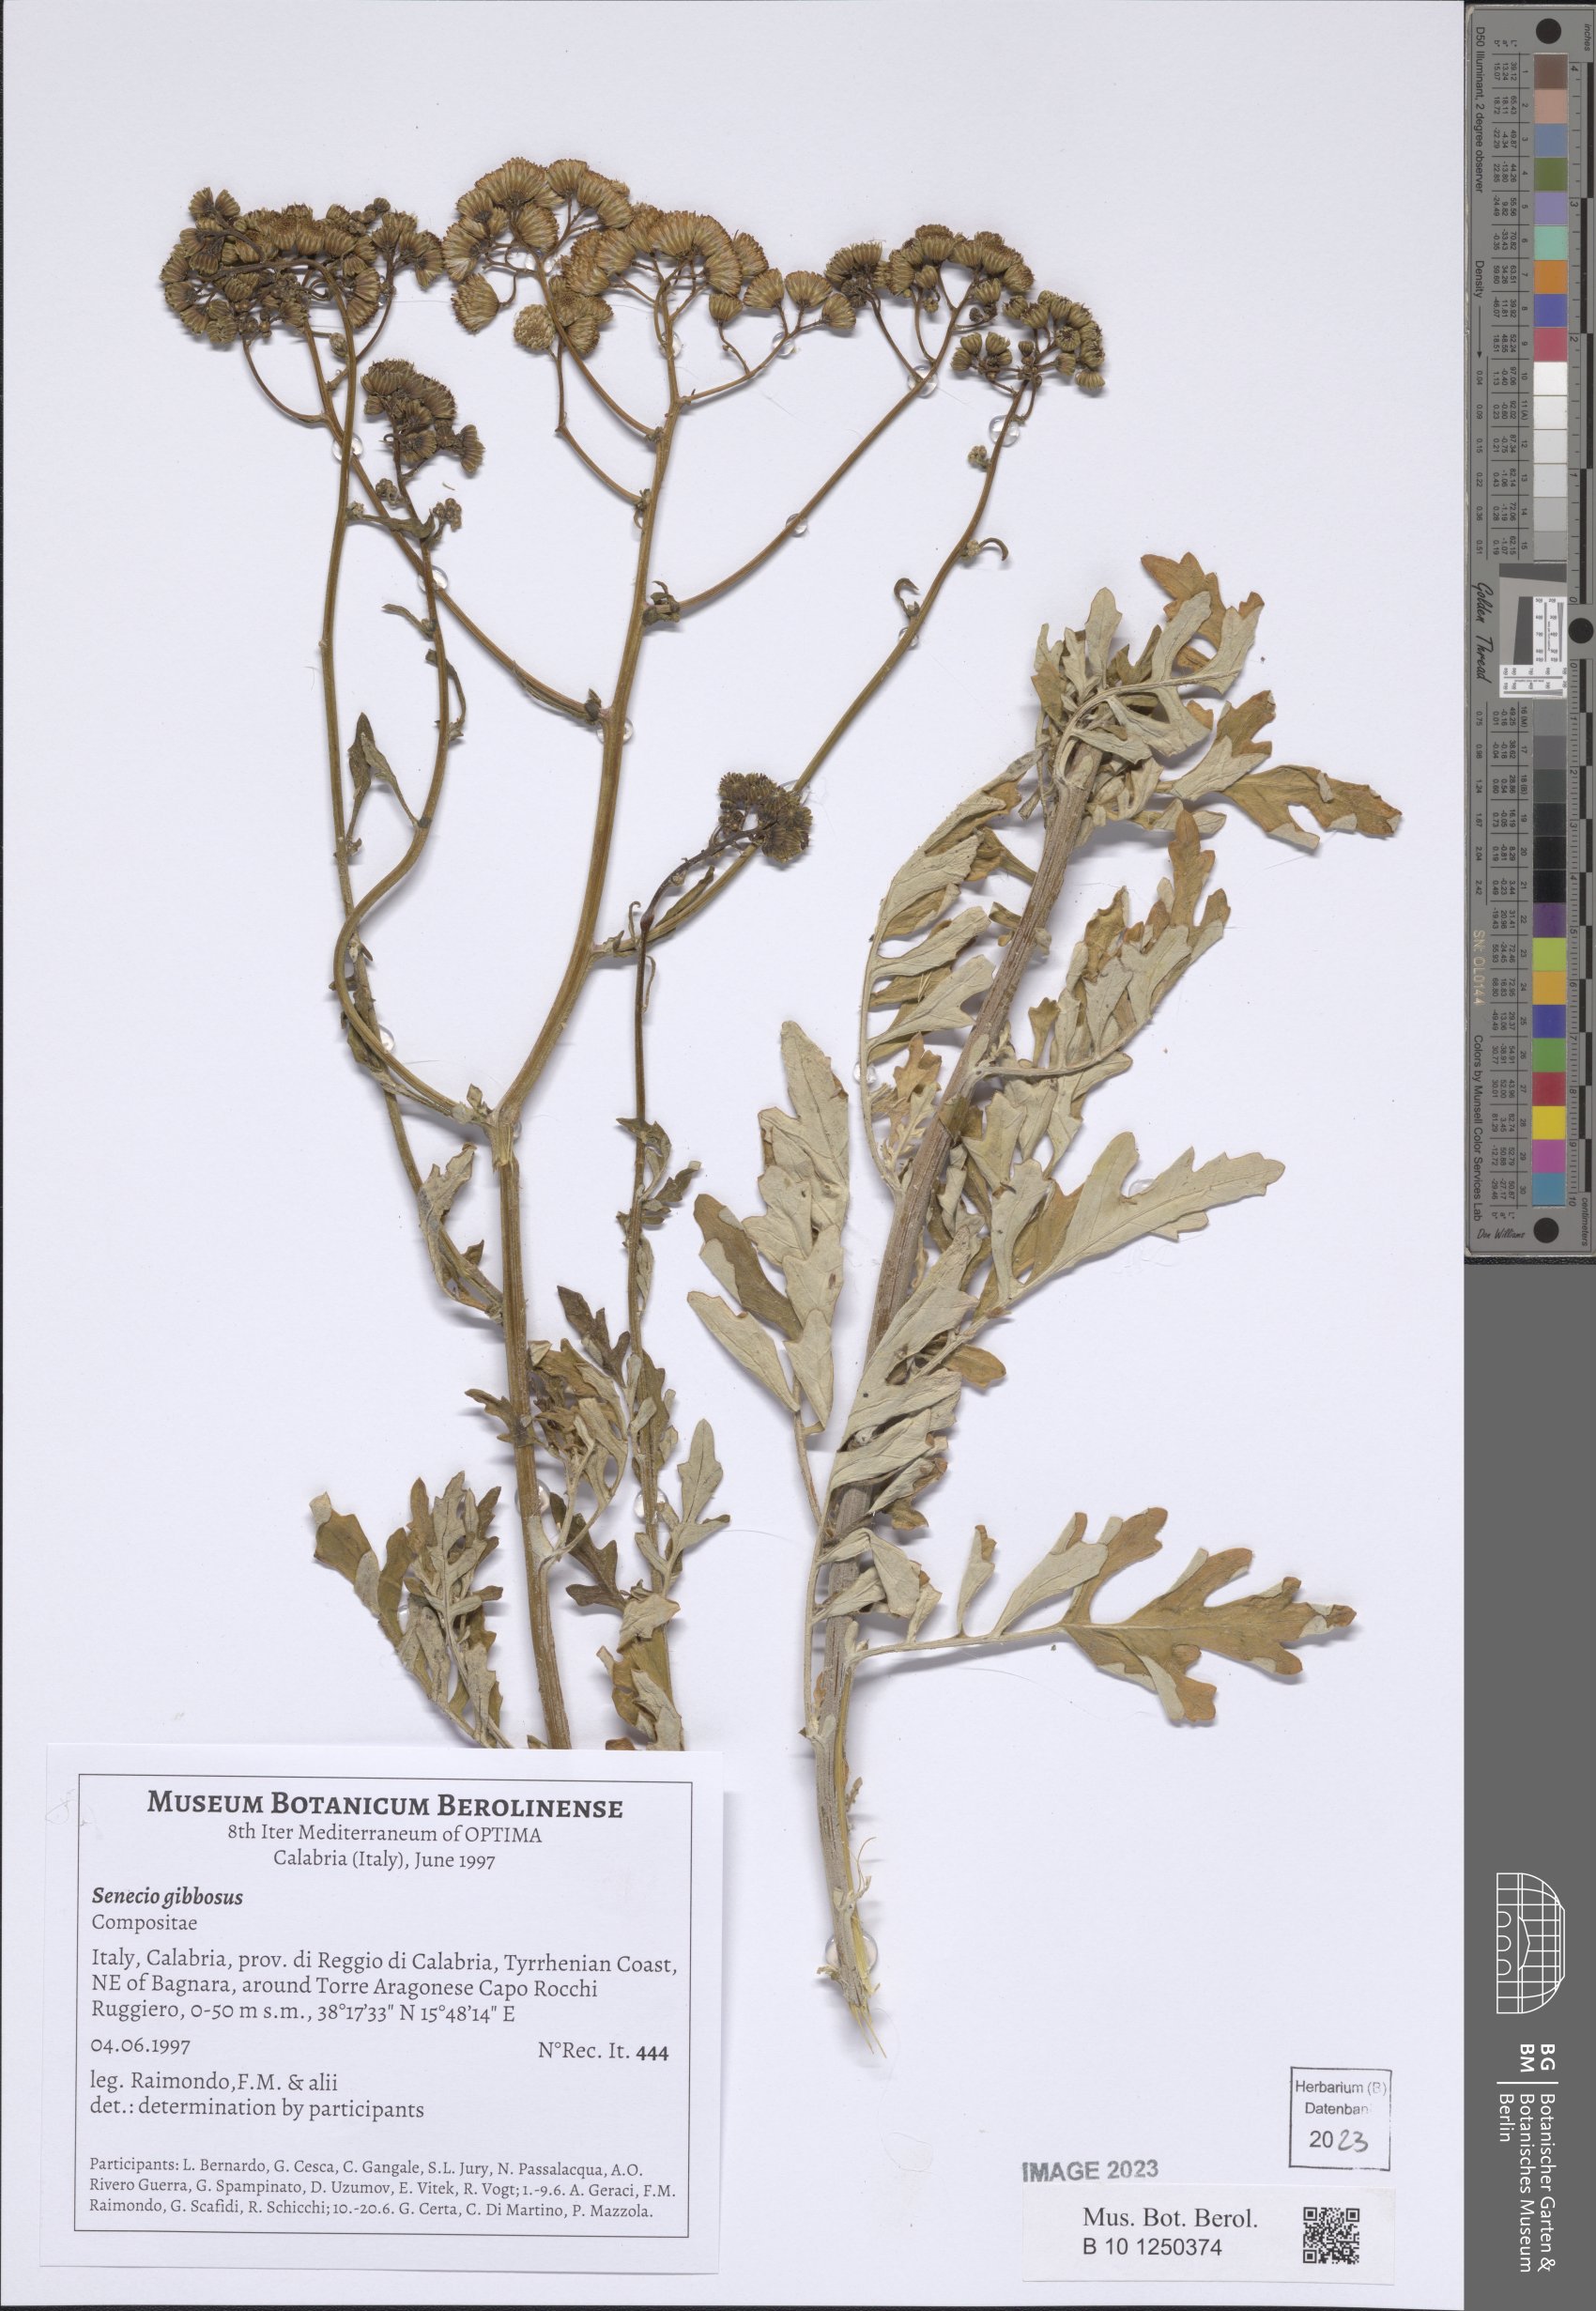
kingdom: Plantae
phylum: Tracheophyta
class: Magnoliopsida
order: Asterales
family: Asteraceae
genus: Jacobaea
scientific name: Jacobaea maritima
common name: Silver ragwort
